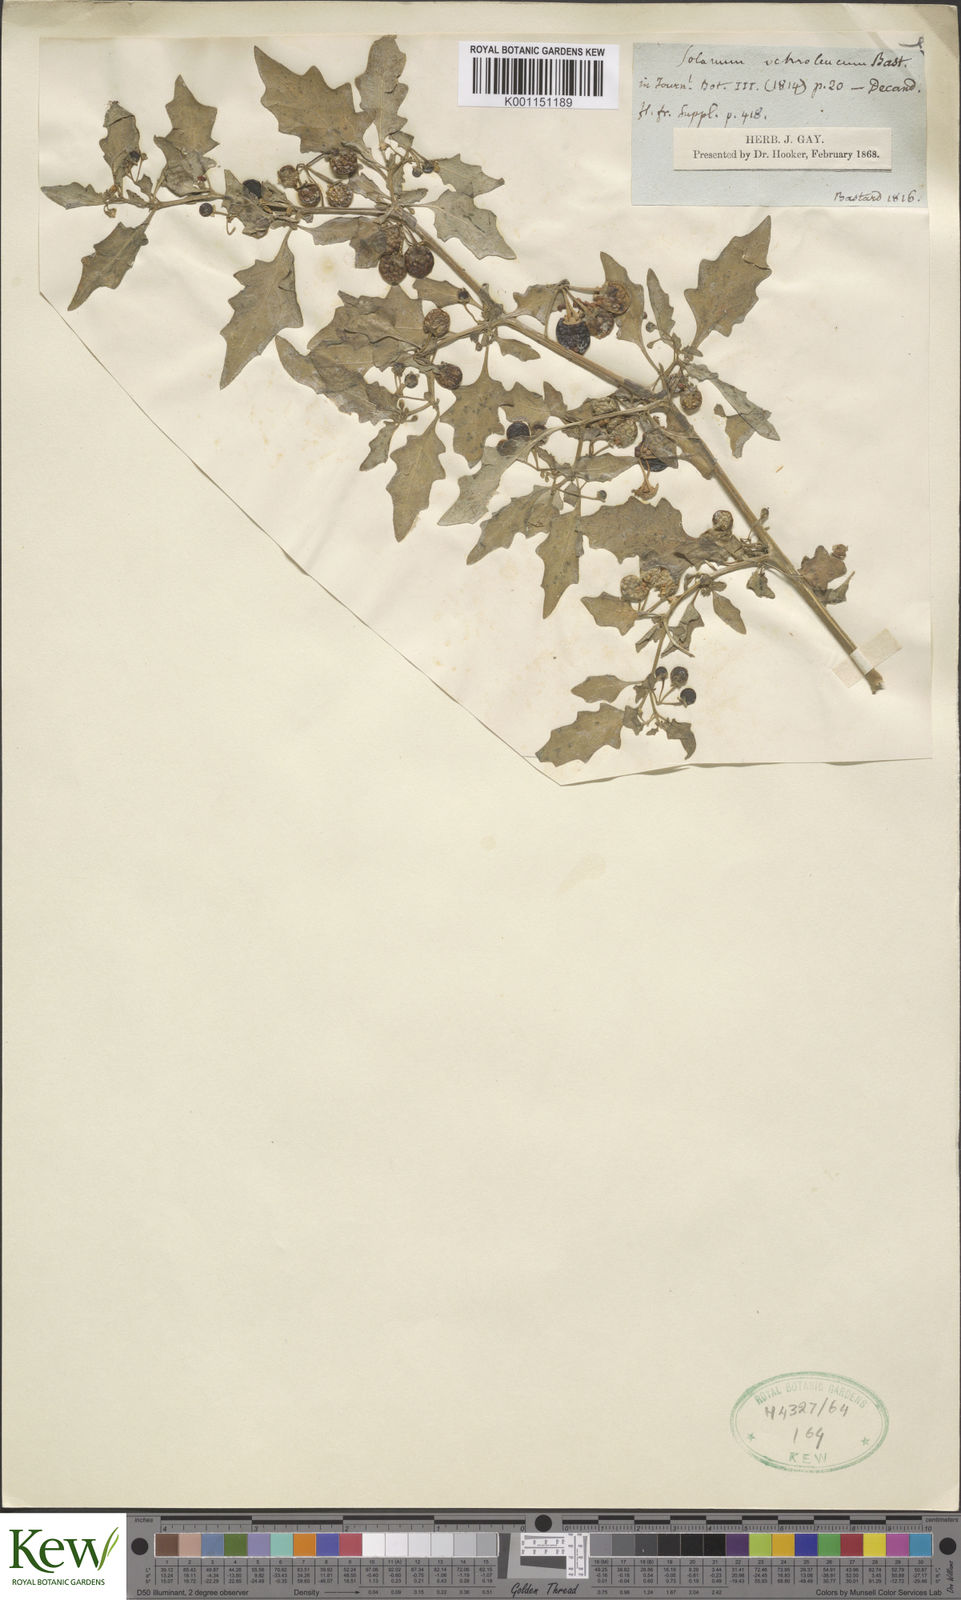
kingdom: Plantae
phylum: Tracheophyta
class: Magnoliopsida
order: Solanales
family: Solanaceae
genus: Solanum
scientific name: Solanum villosum
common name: Red nightshade
